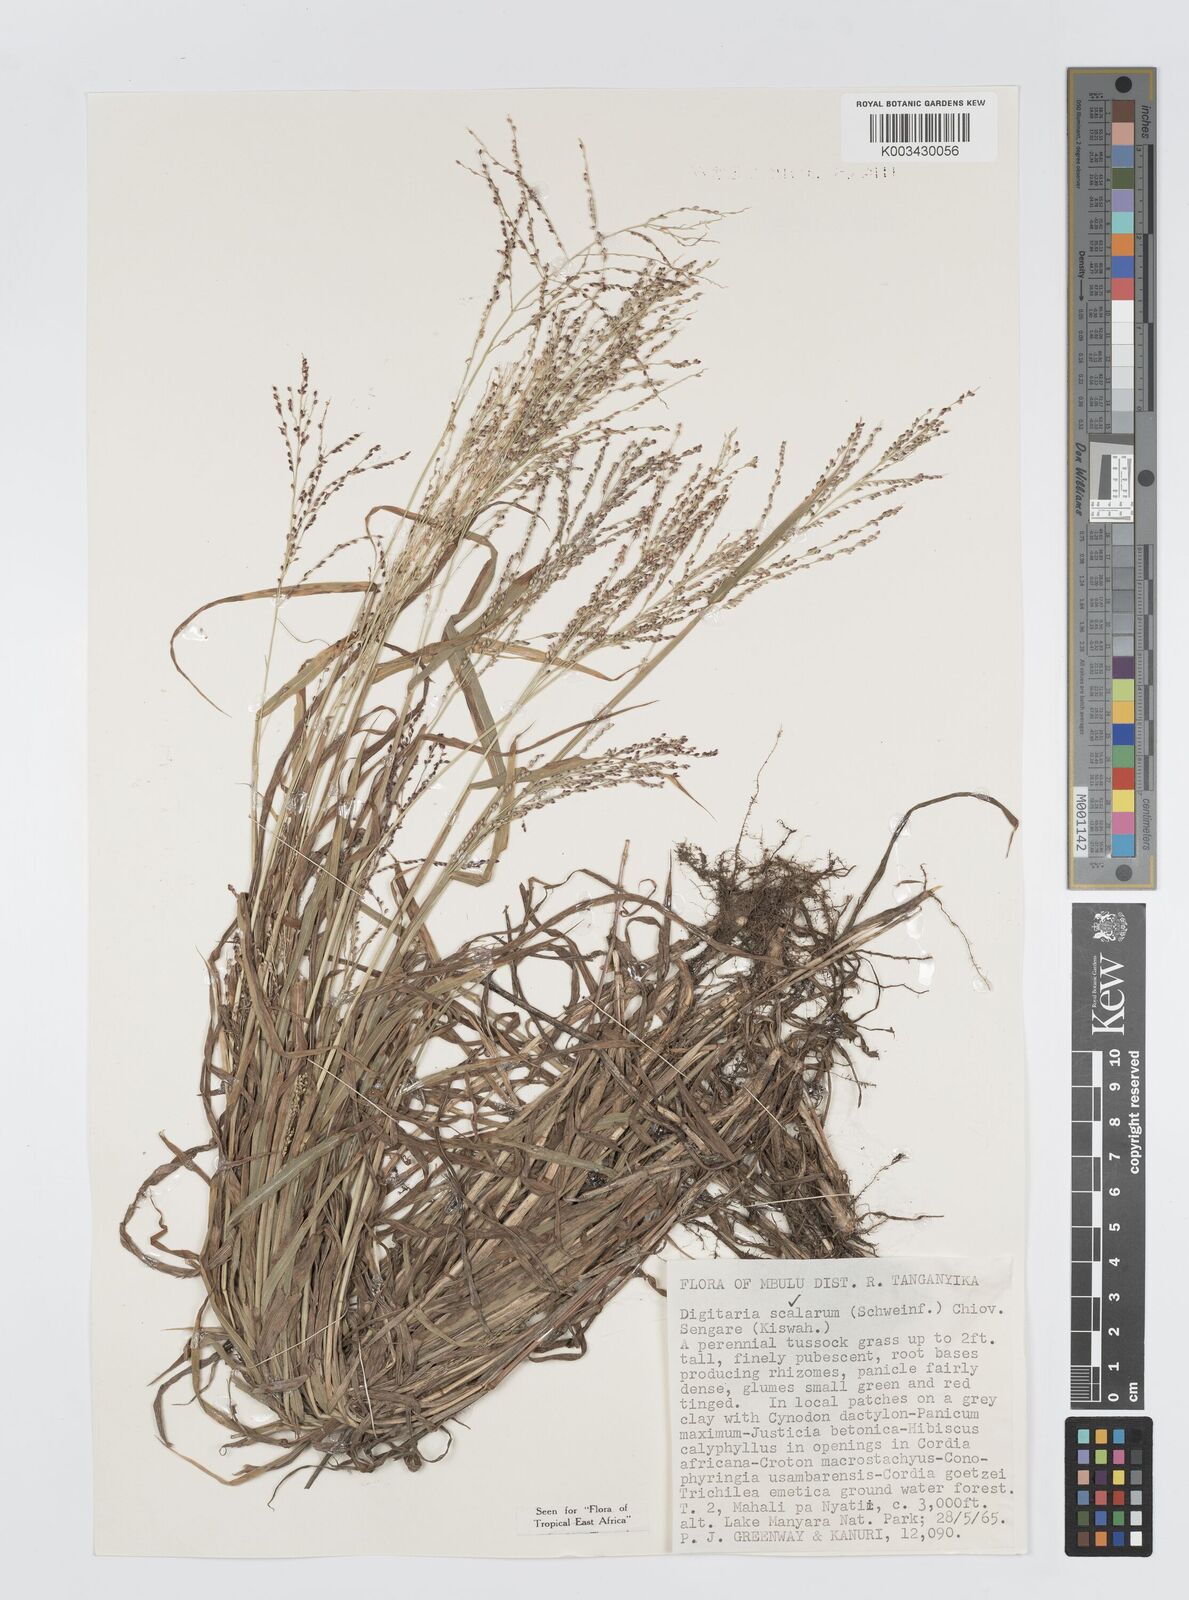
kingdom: Plantae
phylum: Tracheophyta
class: Liliopsida
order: Poales
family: Poaceae
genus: Digitaria
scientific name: Digitaria abyssinica
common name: African couchgrass
